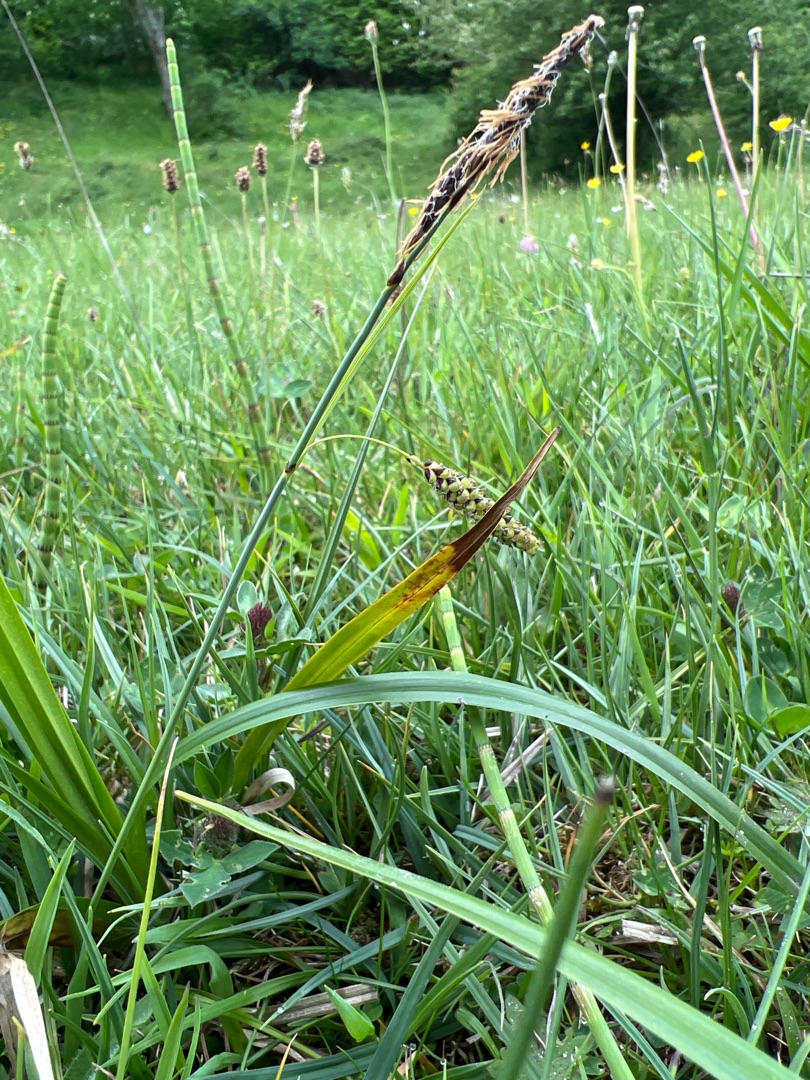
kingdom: Plantae
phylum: Tracheophyta
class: Liliopsida
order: Poales
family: Cyperaceae
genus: Carex
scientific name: Carex flacca
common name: Blågrøn star
